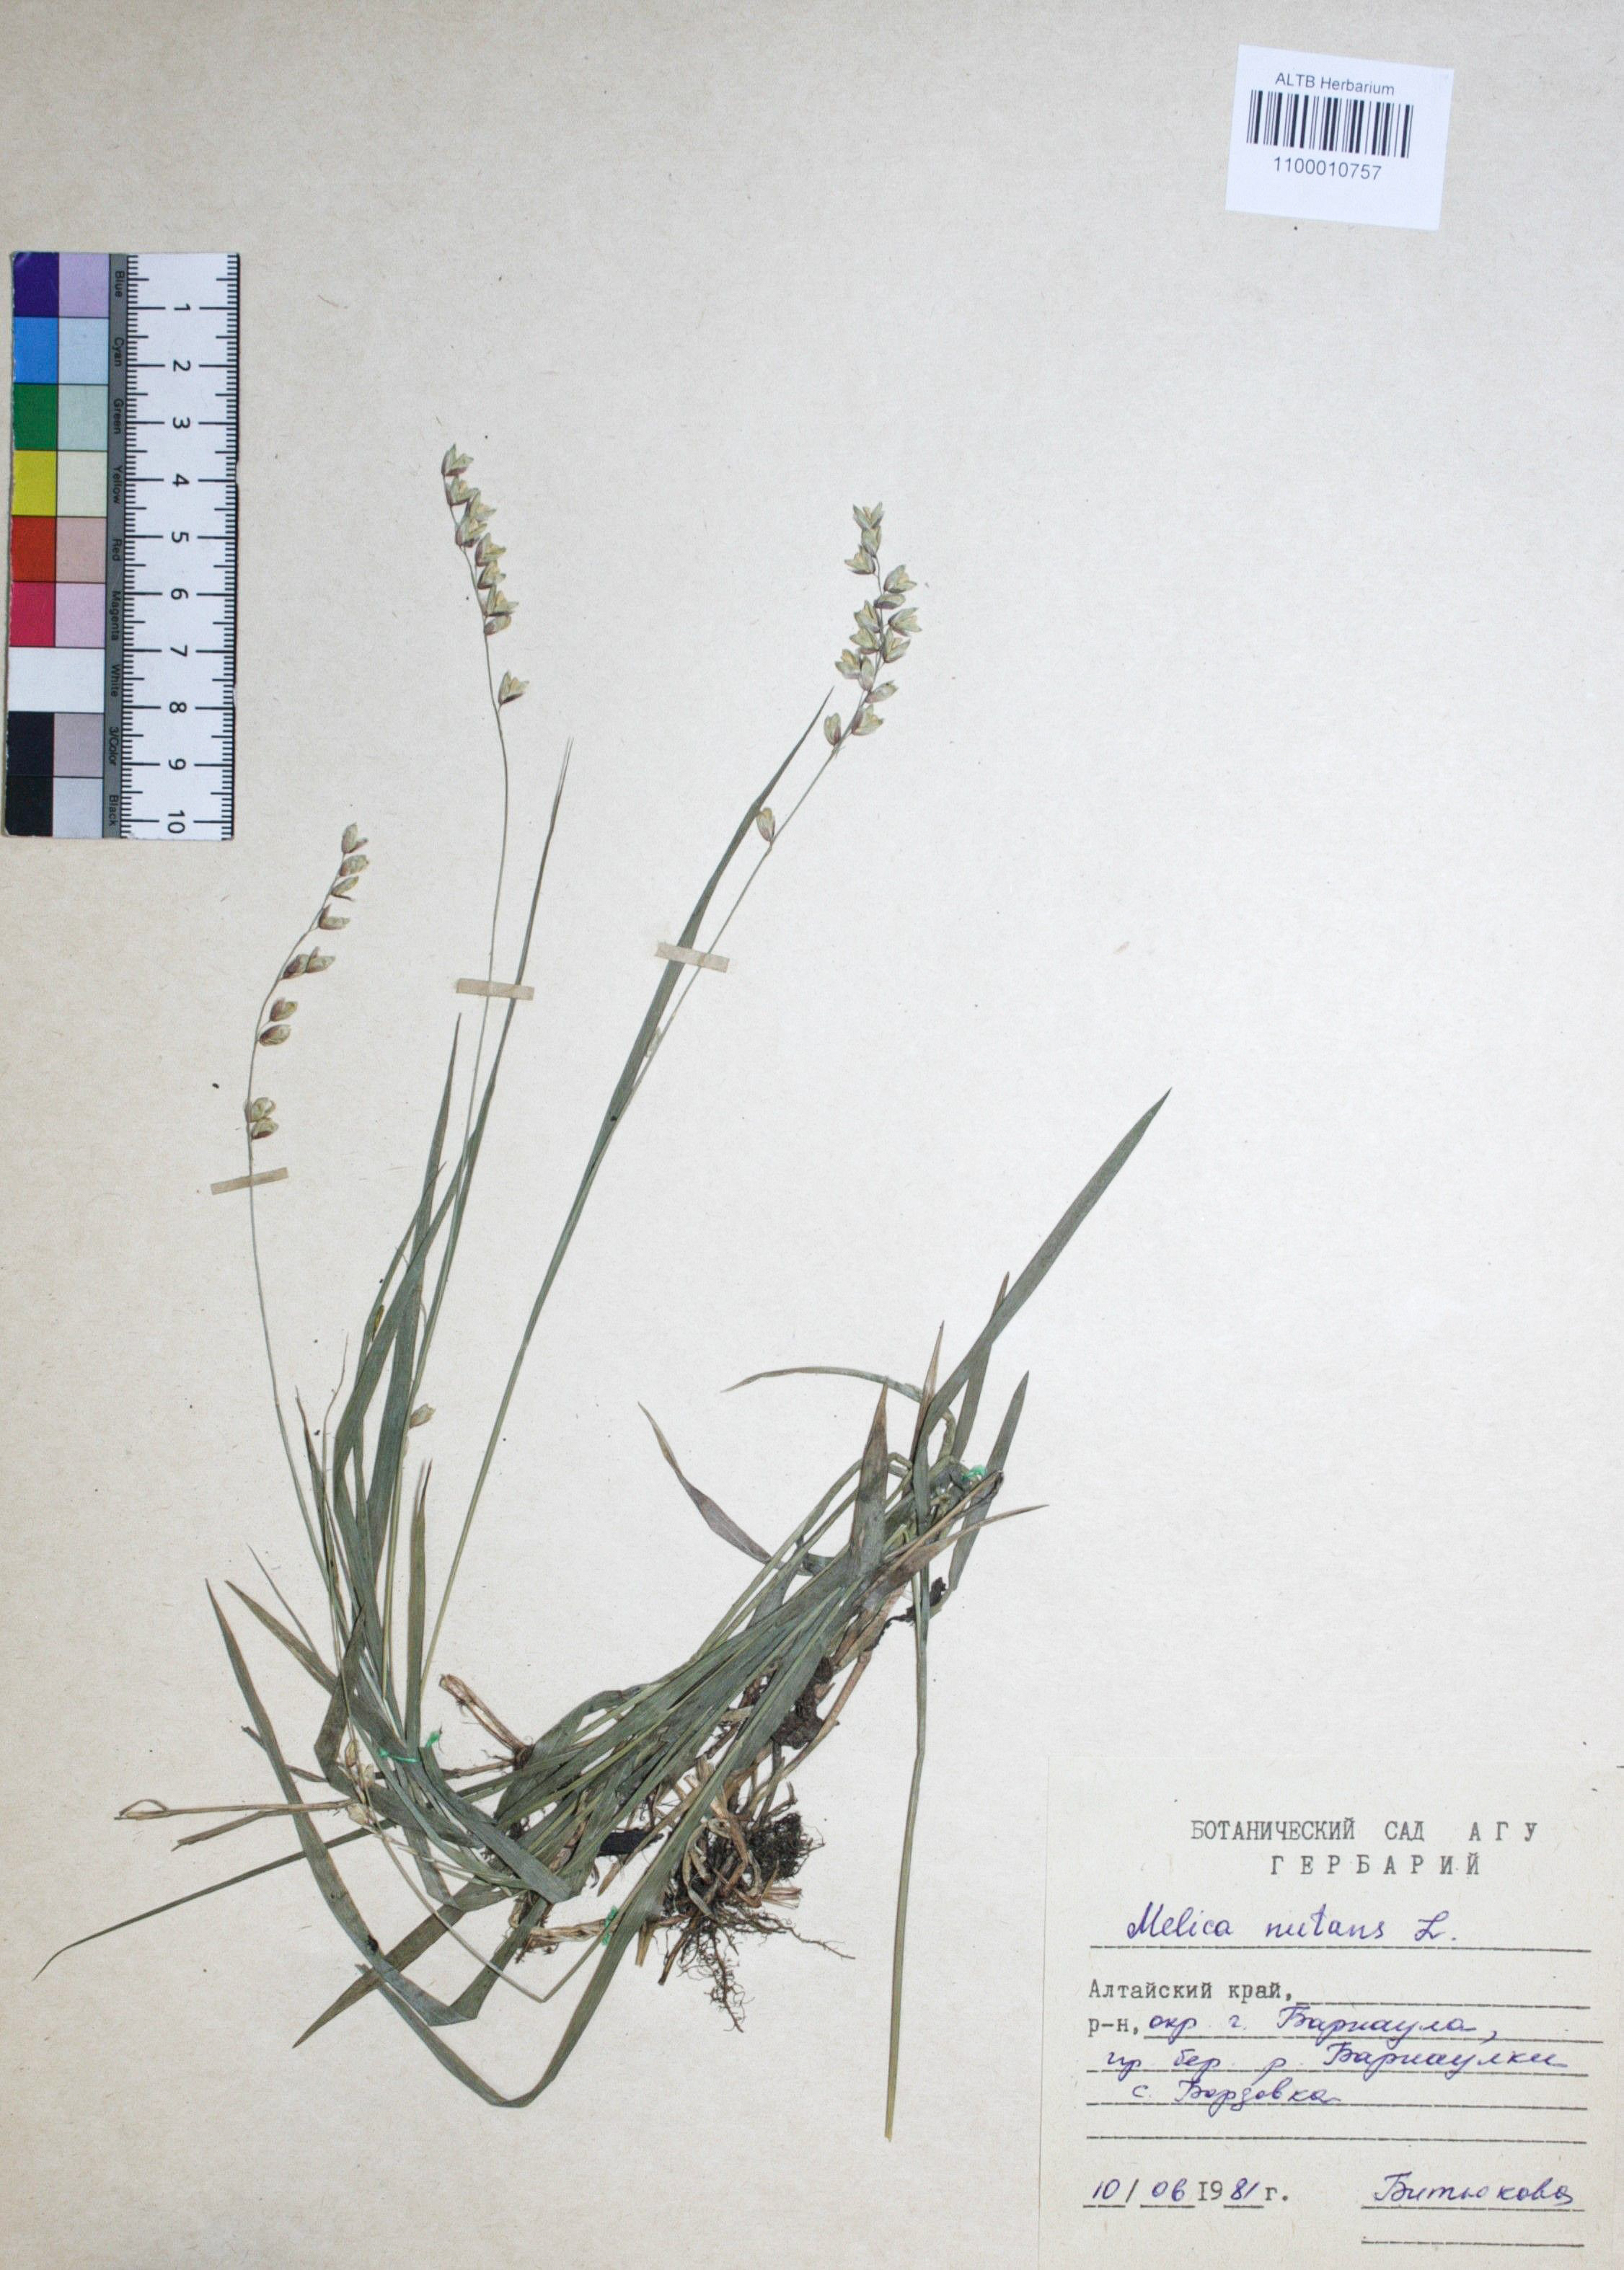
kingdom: Plantae
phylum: Tracheophyta
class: Liliopsida
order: Poales
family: Poaceae
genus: Melica
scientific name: Melica nutans
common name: Mountain melick
